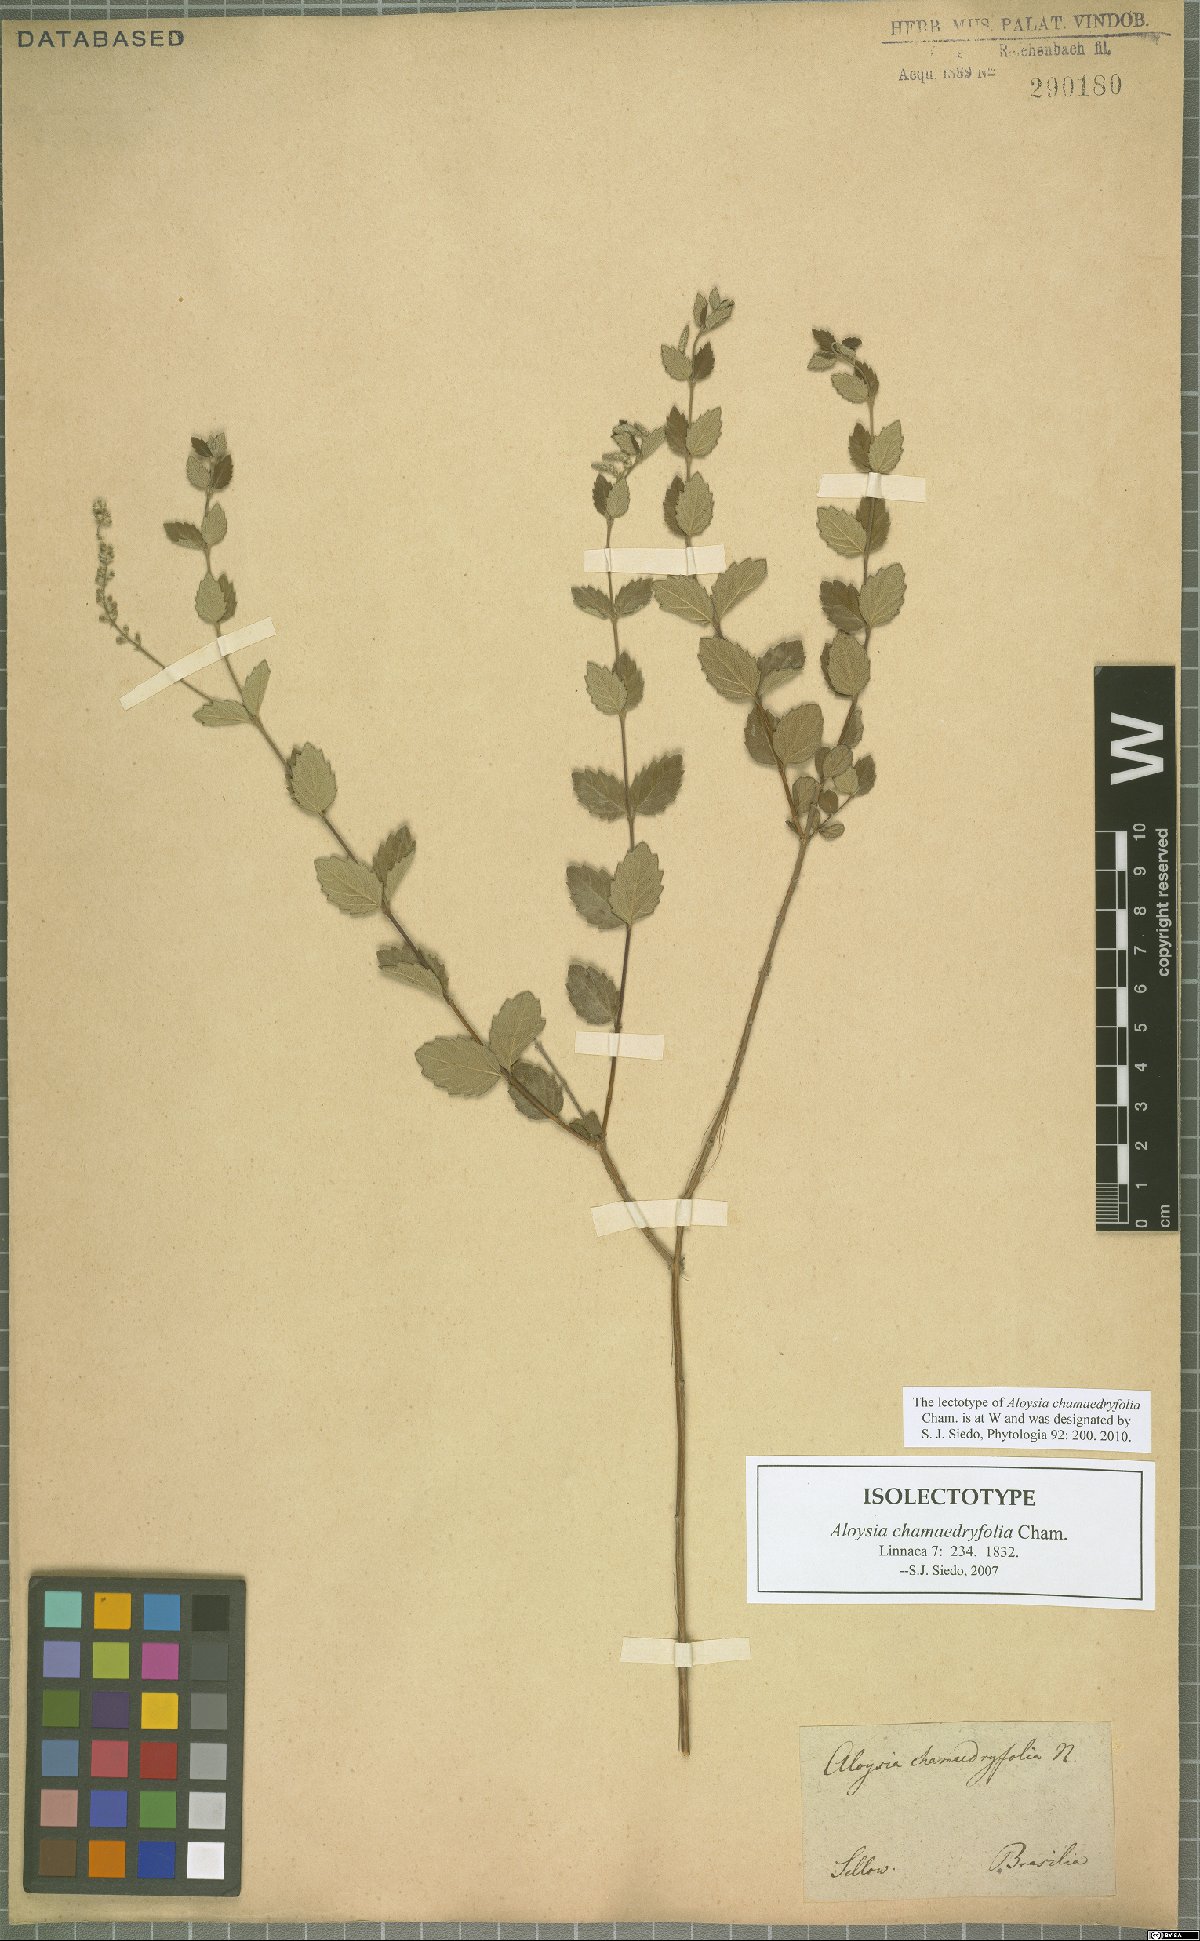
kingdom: Plantae
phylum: Tracheophyta
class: Magnoliopsida
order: Lamiales
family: Verbenaceae
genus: Aloysia
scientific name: Aloysia chamaedryfolia
